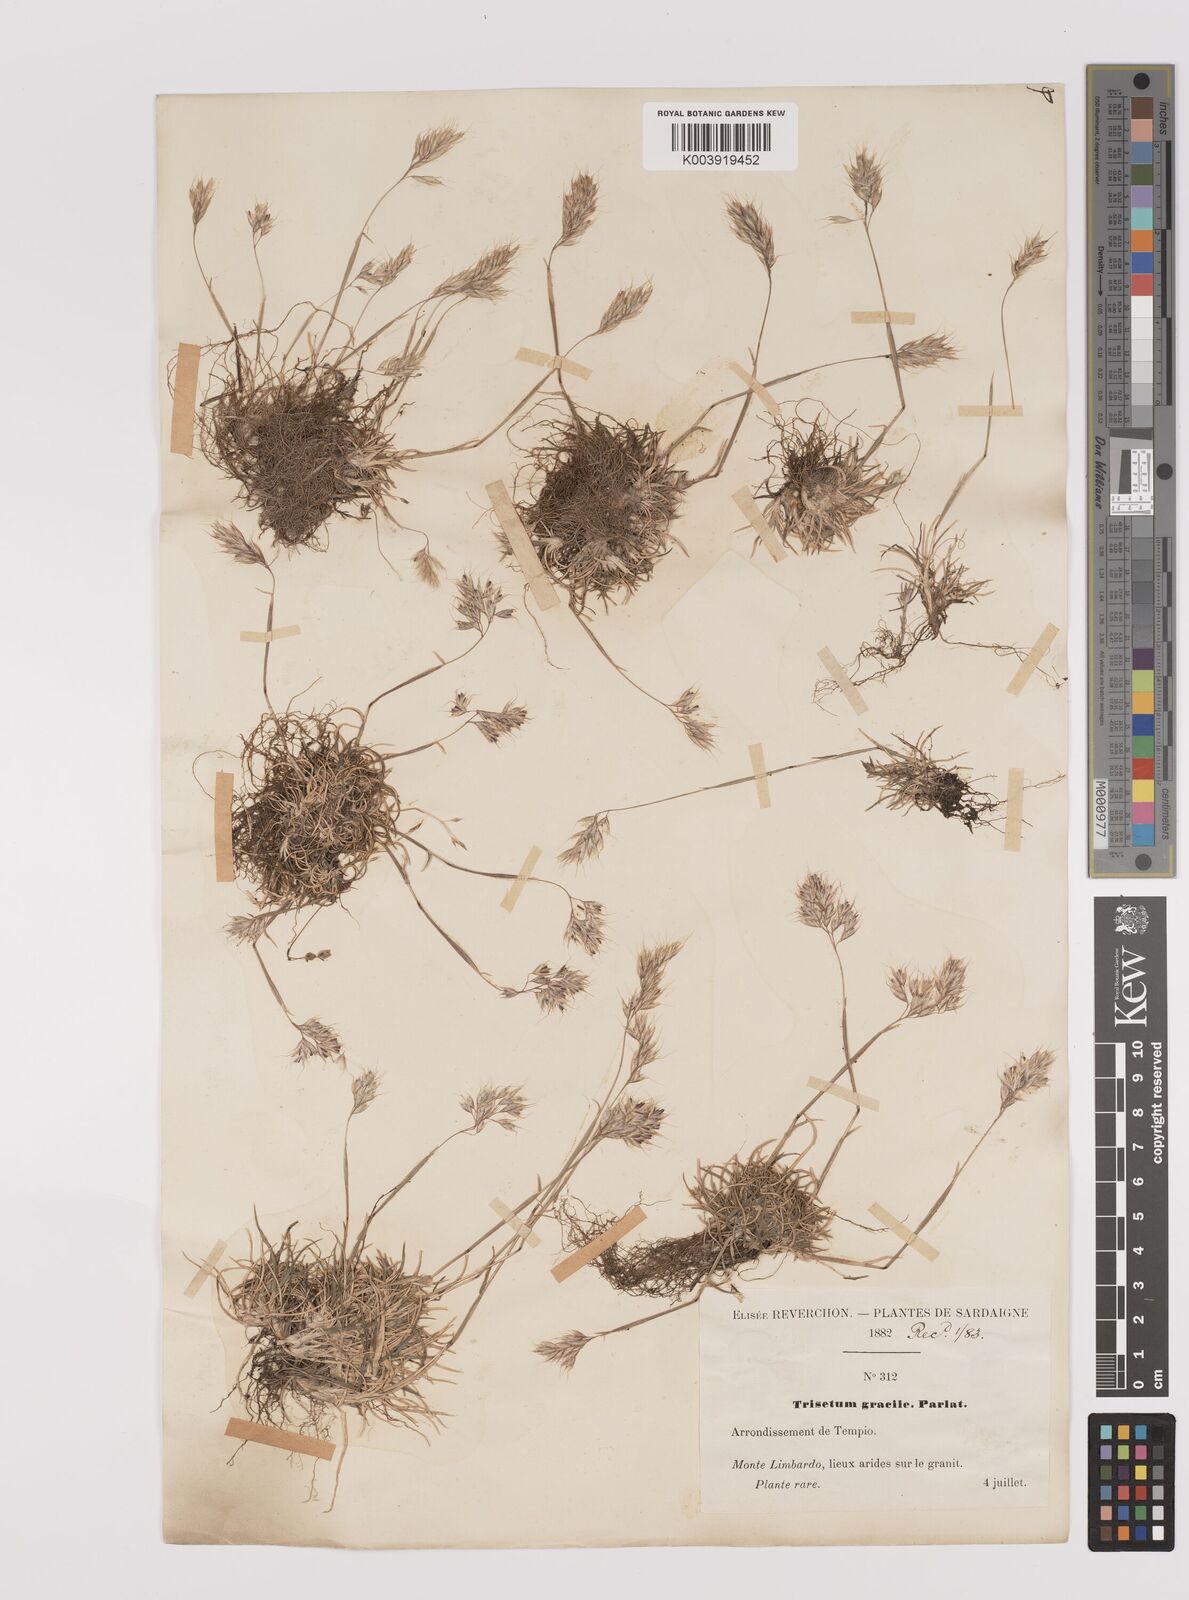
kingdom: Plantae
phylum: Tracheophyta
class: Liliopsida
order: Poales
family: Poaceae
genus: Trisetum
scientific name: Trisetum
